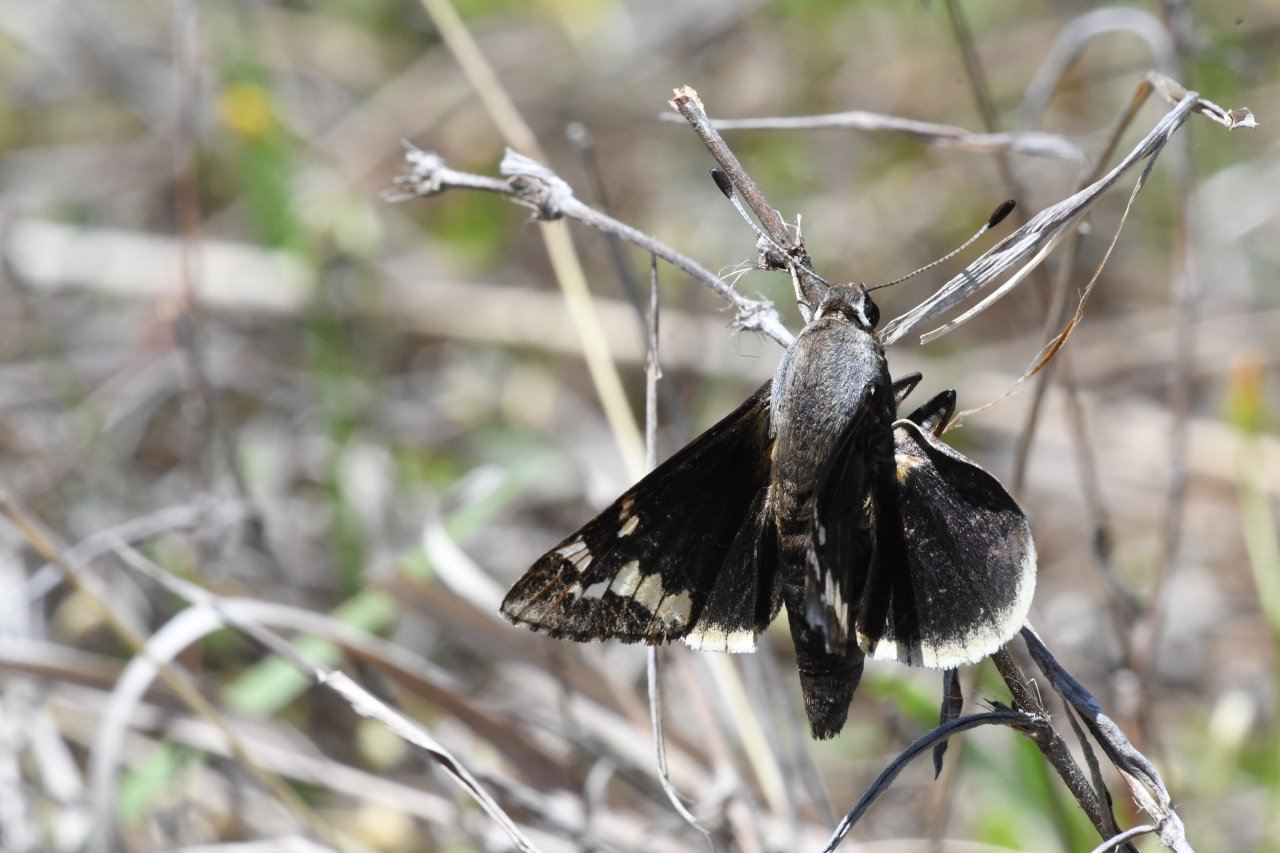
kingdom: Animalia
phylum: Arthropoda
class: Insecta
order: Lepidoptera
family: Hesperiidae
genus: Megathymus
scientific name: Megathymus yuccae
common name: Yucca Giant-Skipper
